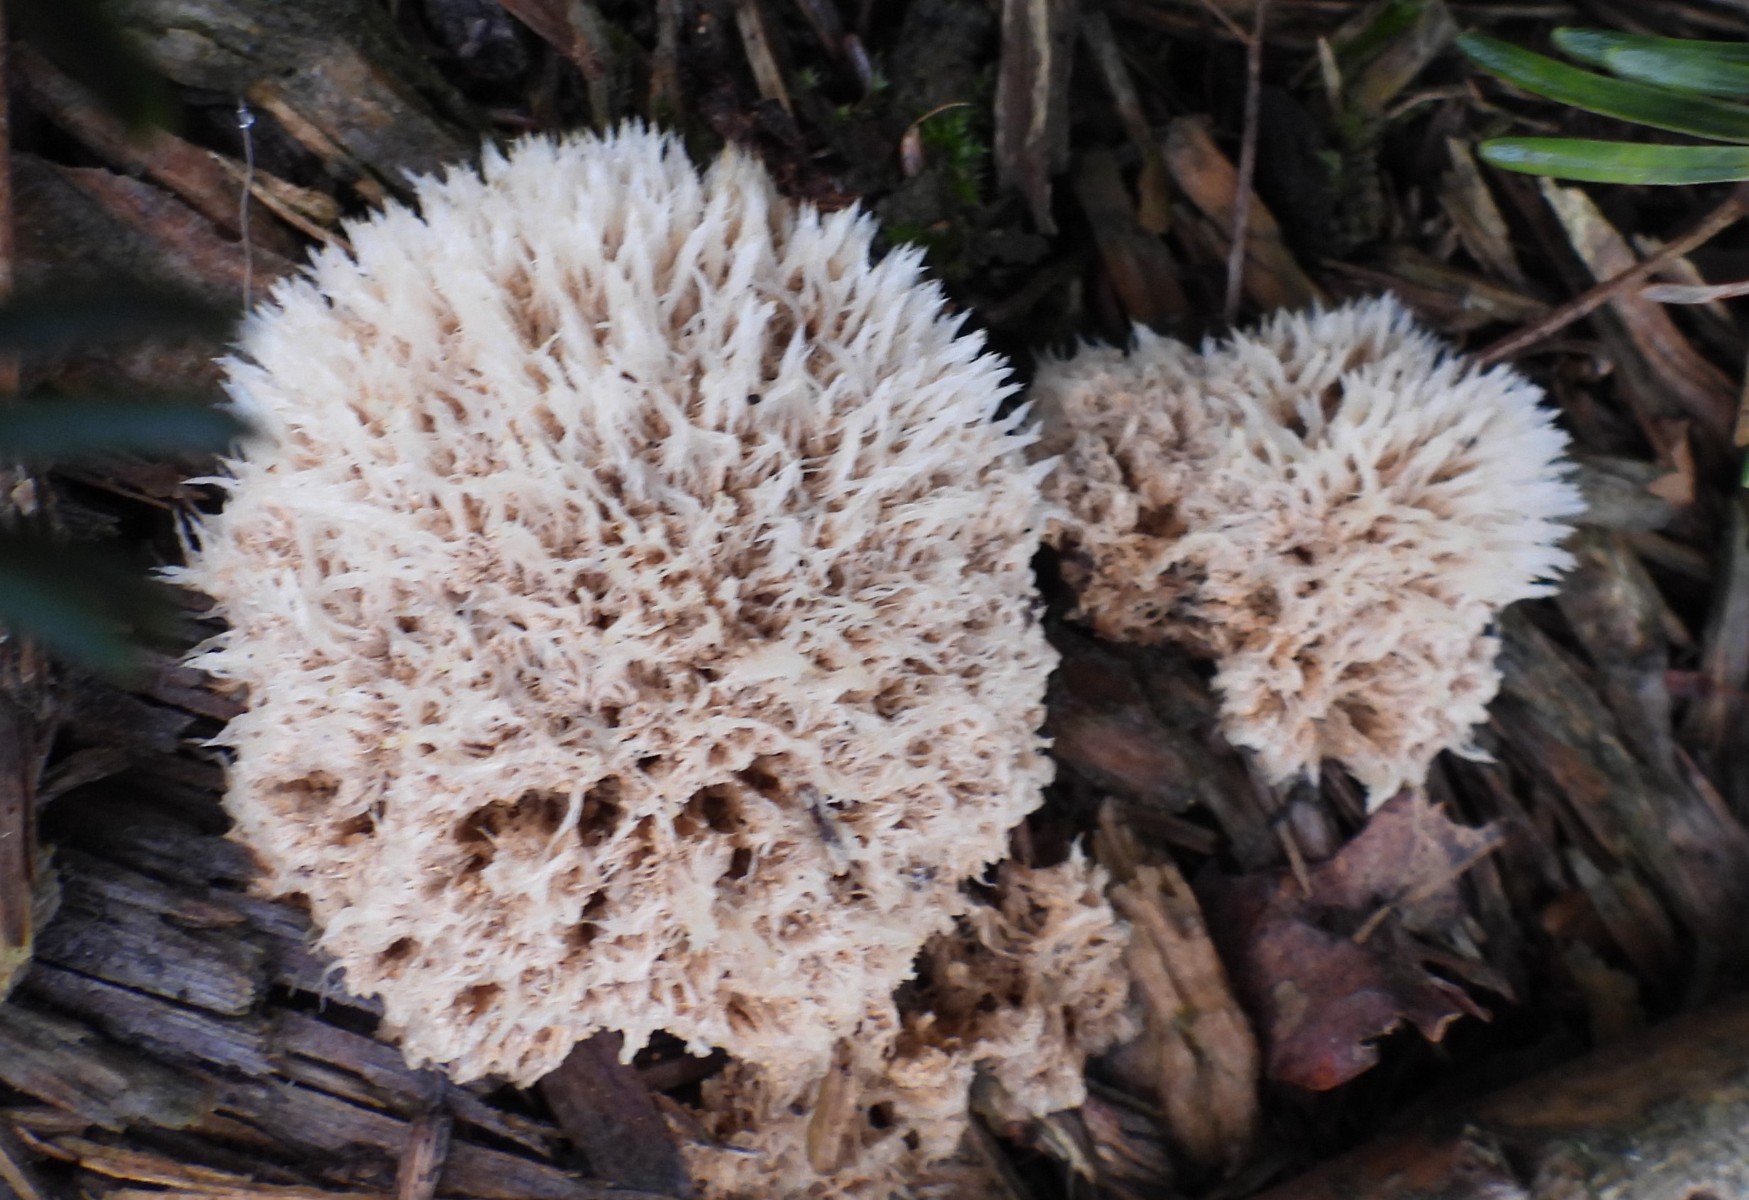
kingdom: Fungi
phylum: Basidiomycota
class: Agaricomycetes
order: Polyporales
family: Dacryobolaceae
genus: Postia
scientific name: Postia ptychogaster
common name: støvende kødporesvamp
